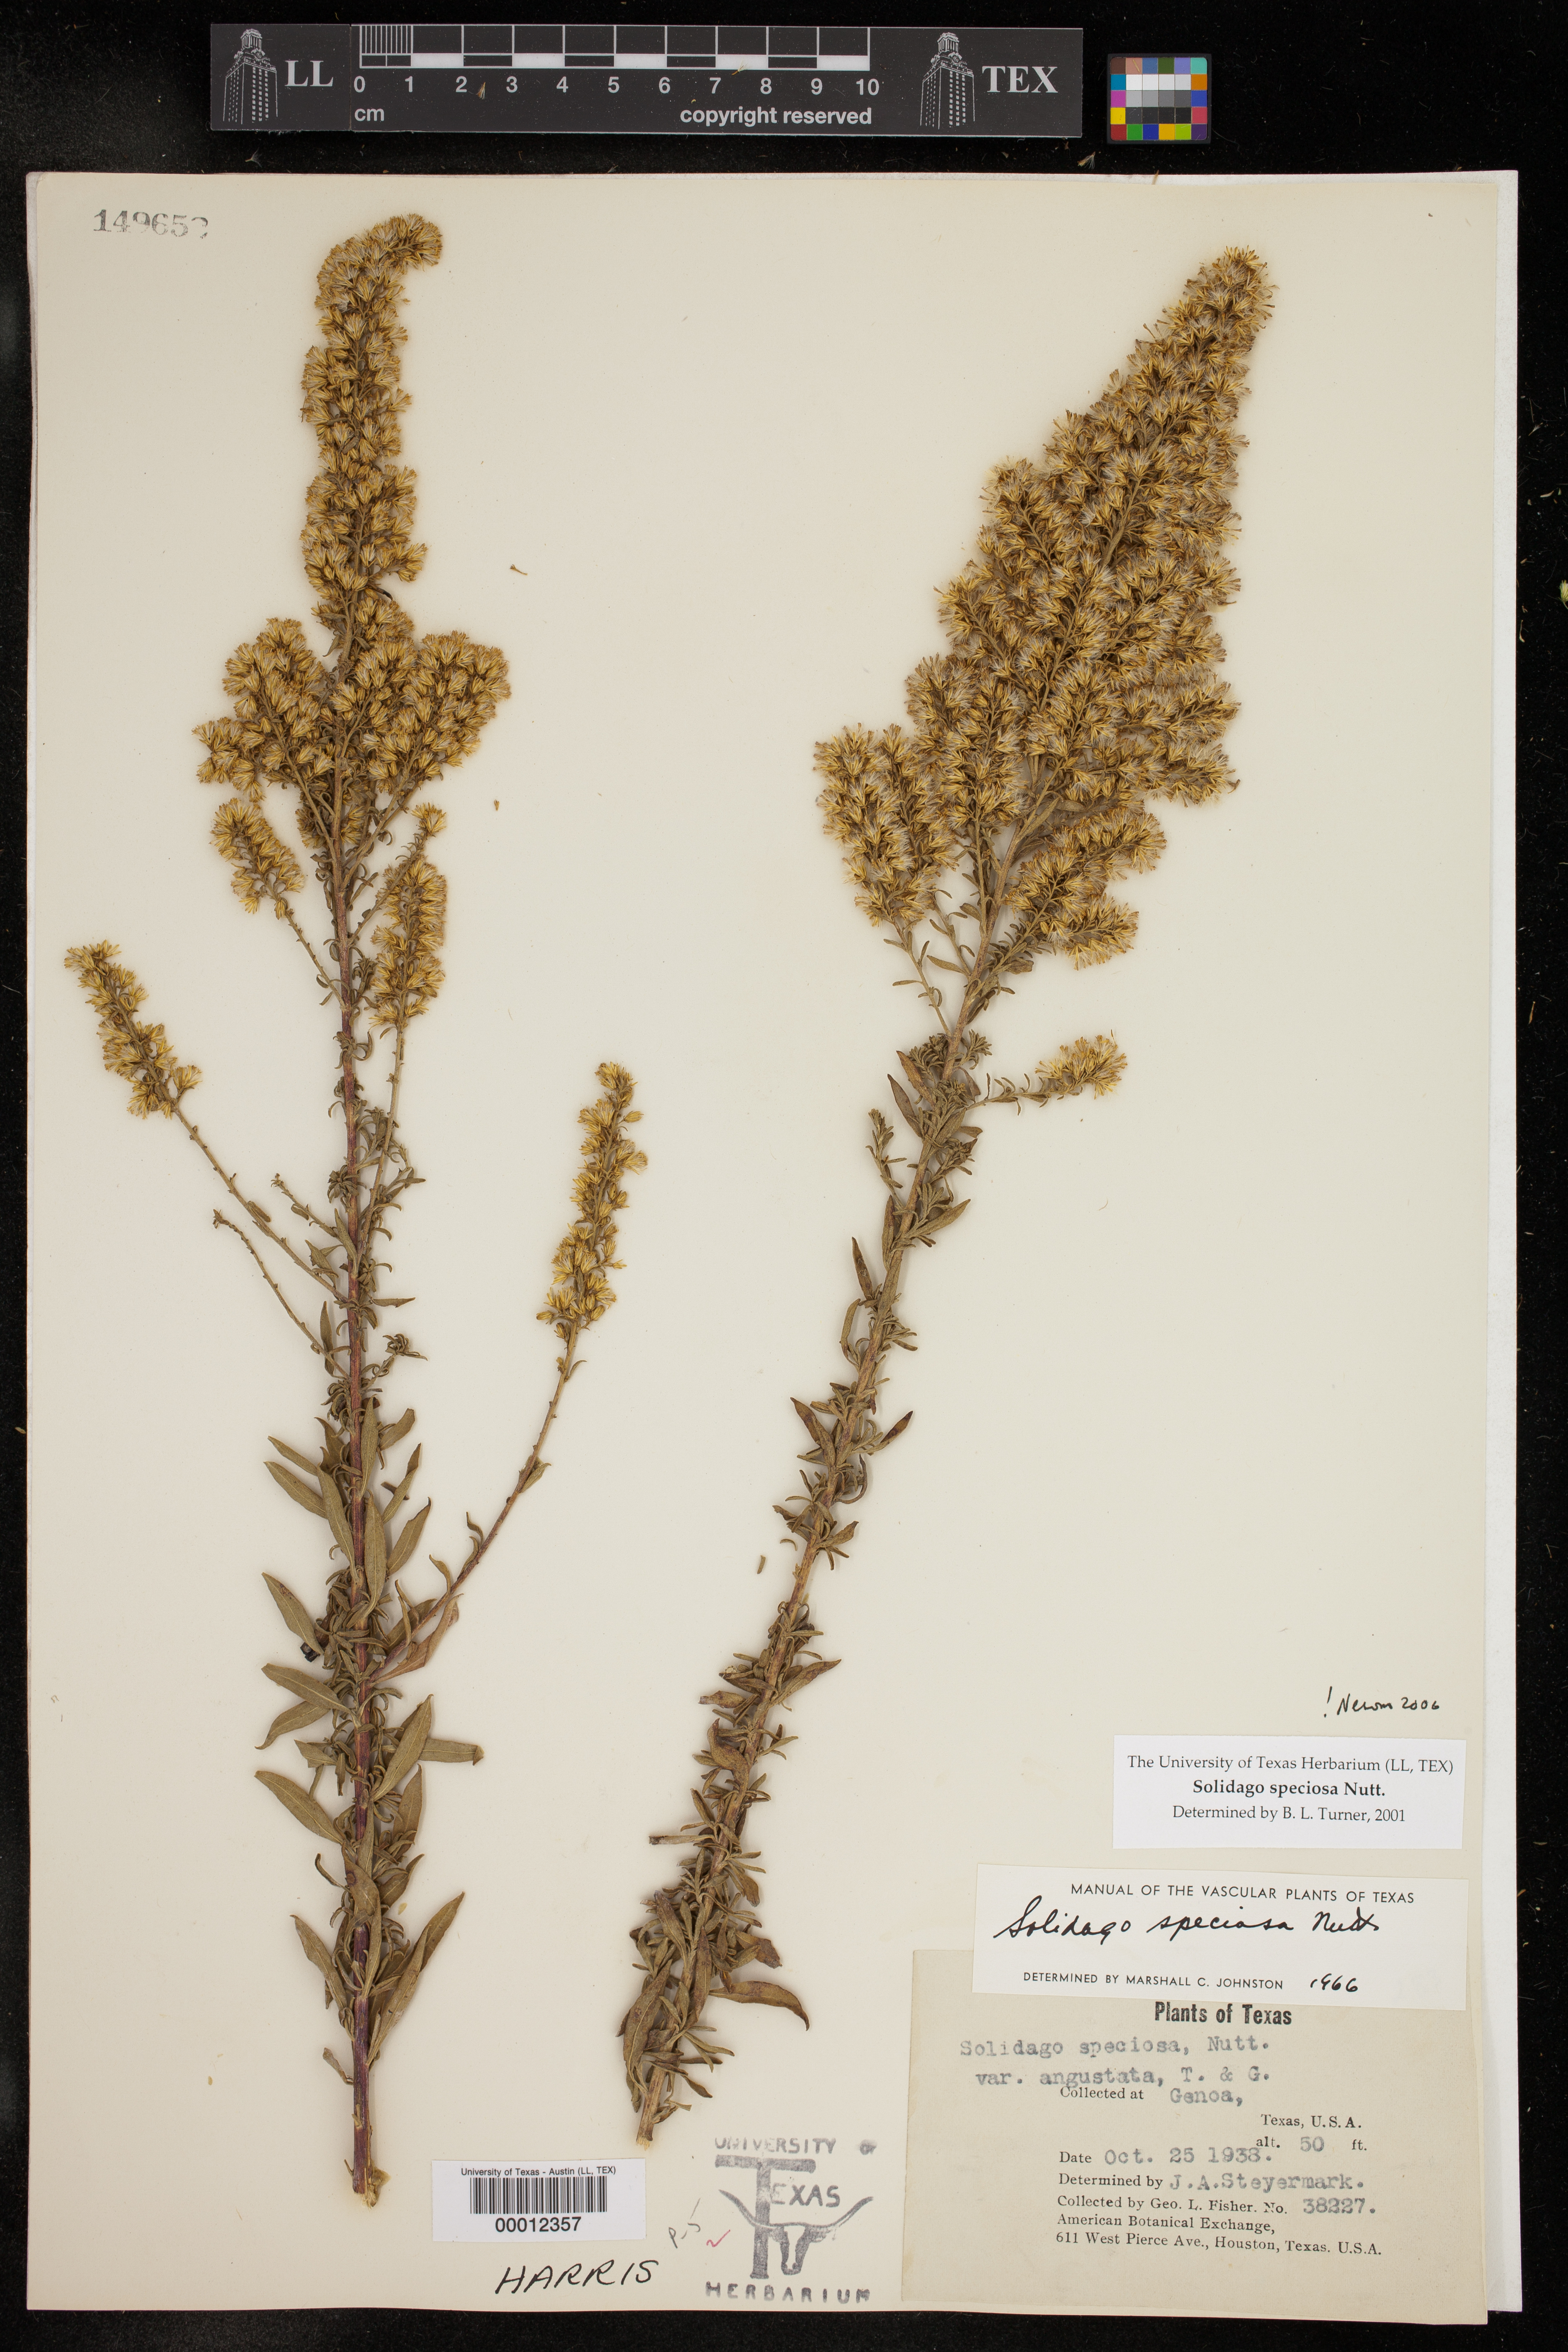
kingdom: Plantae
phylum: Tracheophyta
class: Magnoliopsida
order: Asterales
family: Asteraceae
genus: Solidago
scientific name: Solidago speciosa
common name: Showy goldenrod
